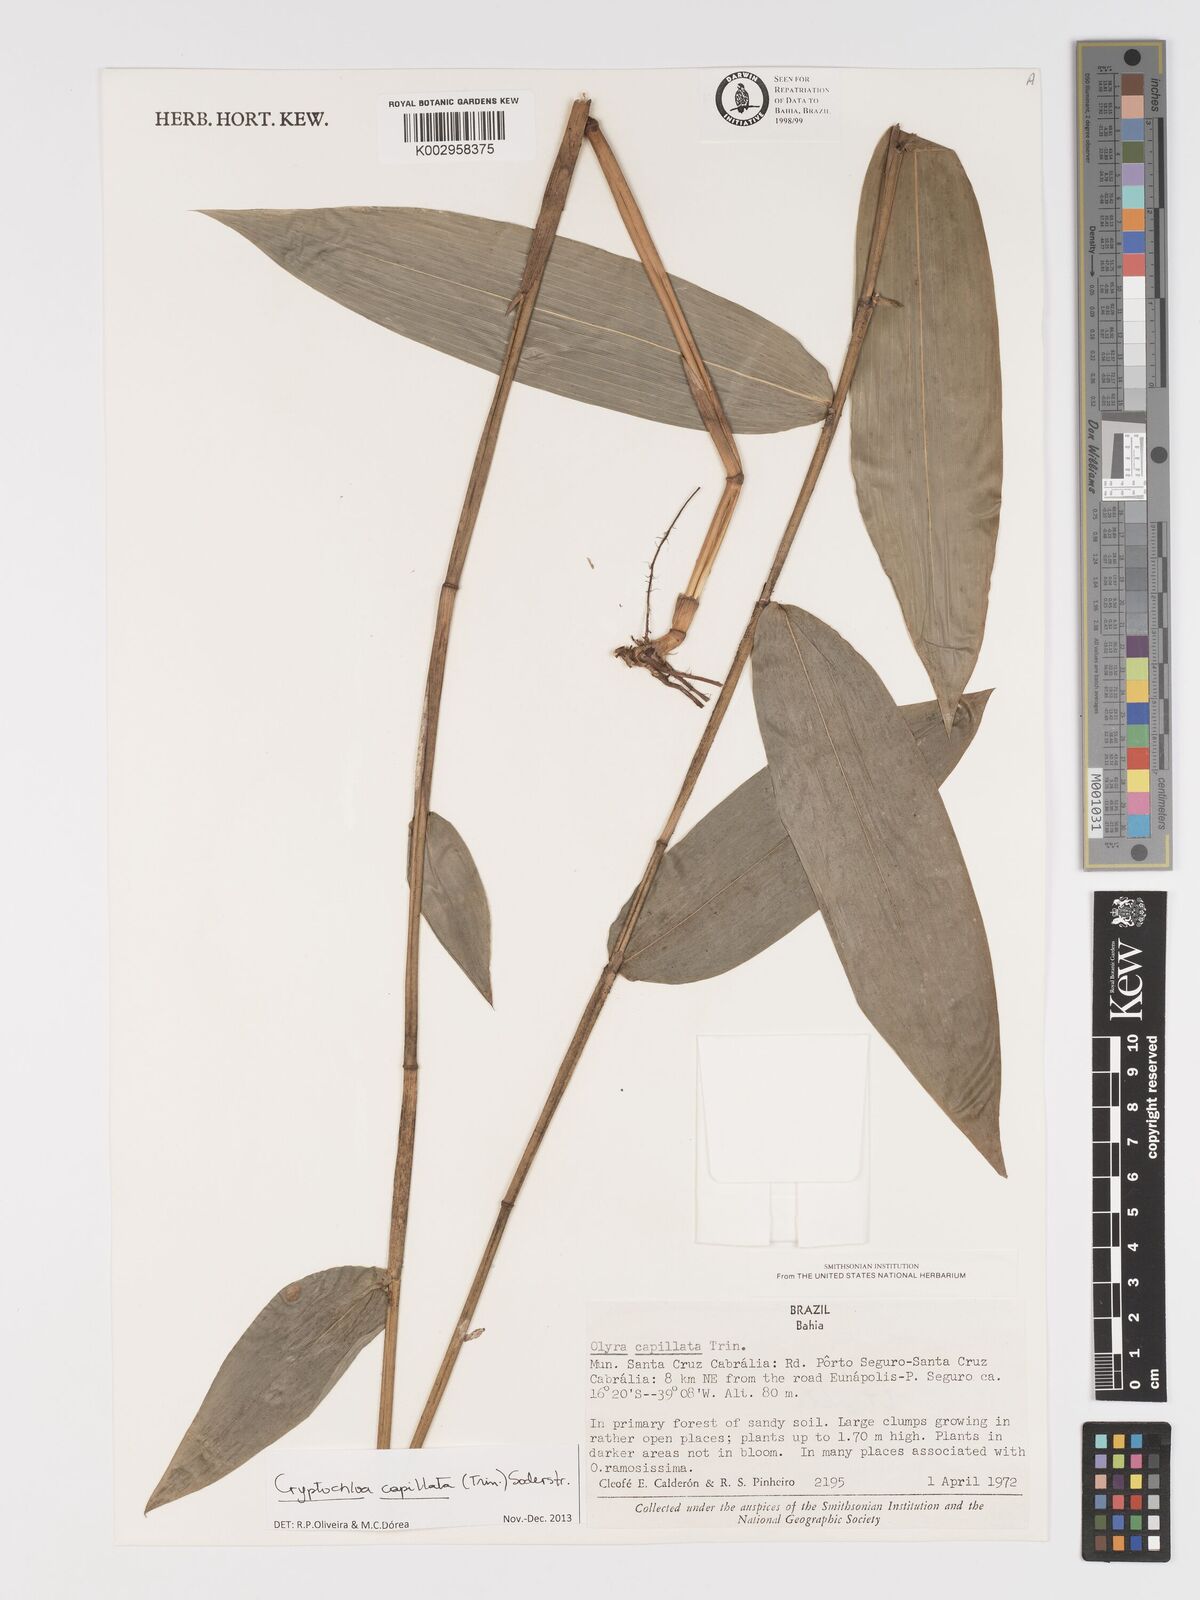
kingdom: Plantae
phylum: Tracheophyta
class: Liliopsida
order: Poales
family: Poaceae
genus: Cryptochloa
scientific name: Cryptochloa capillata
